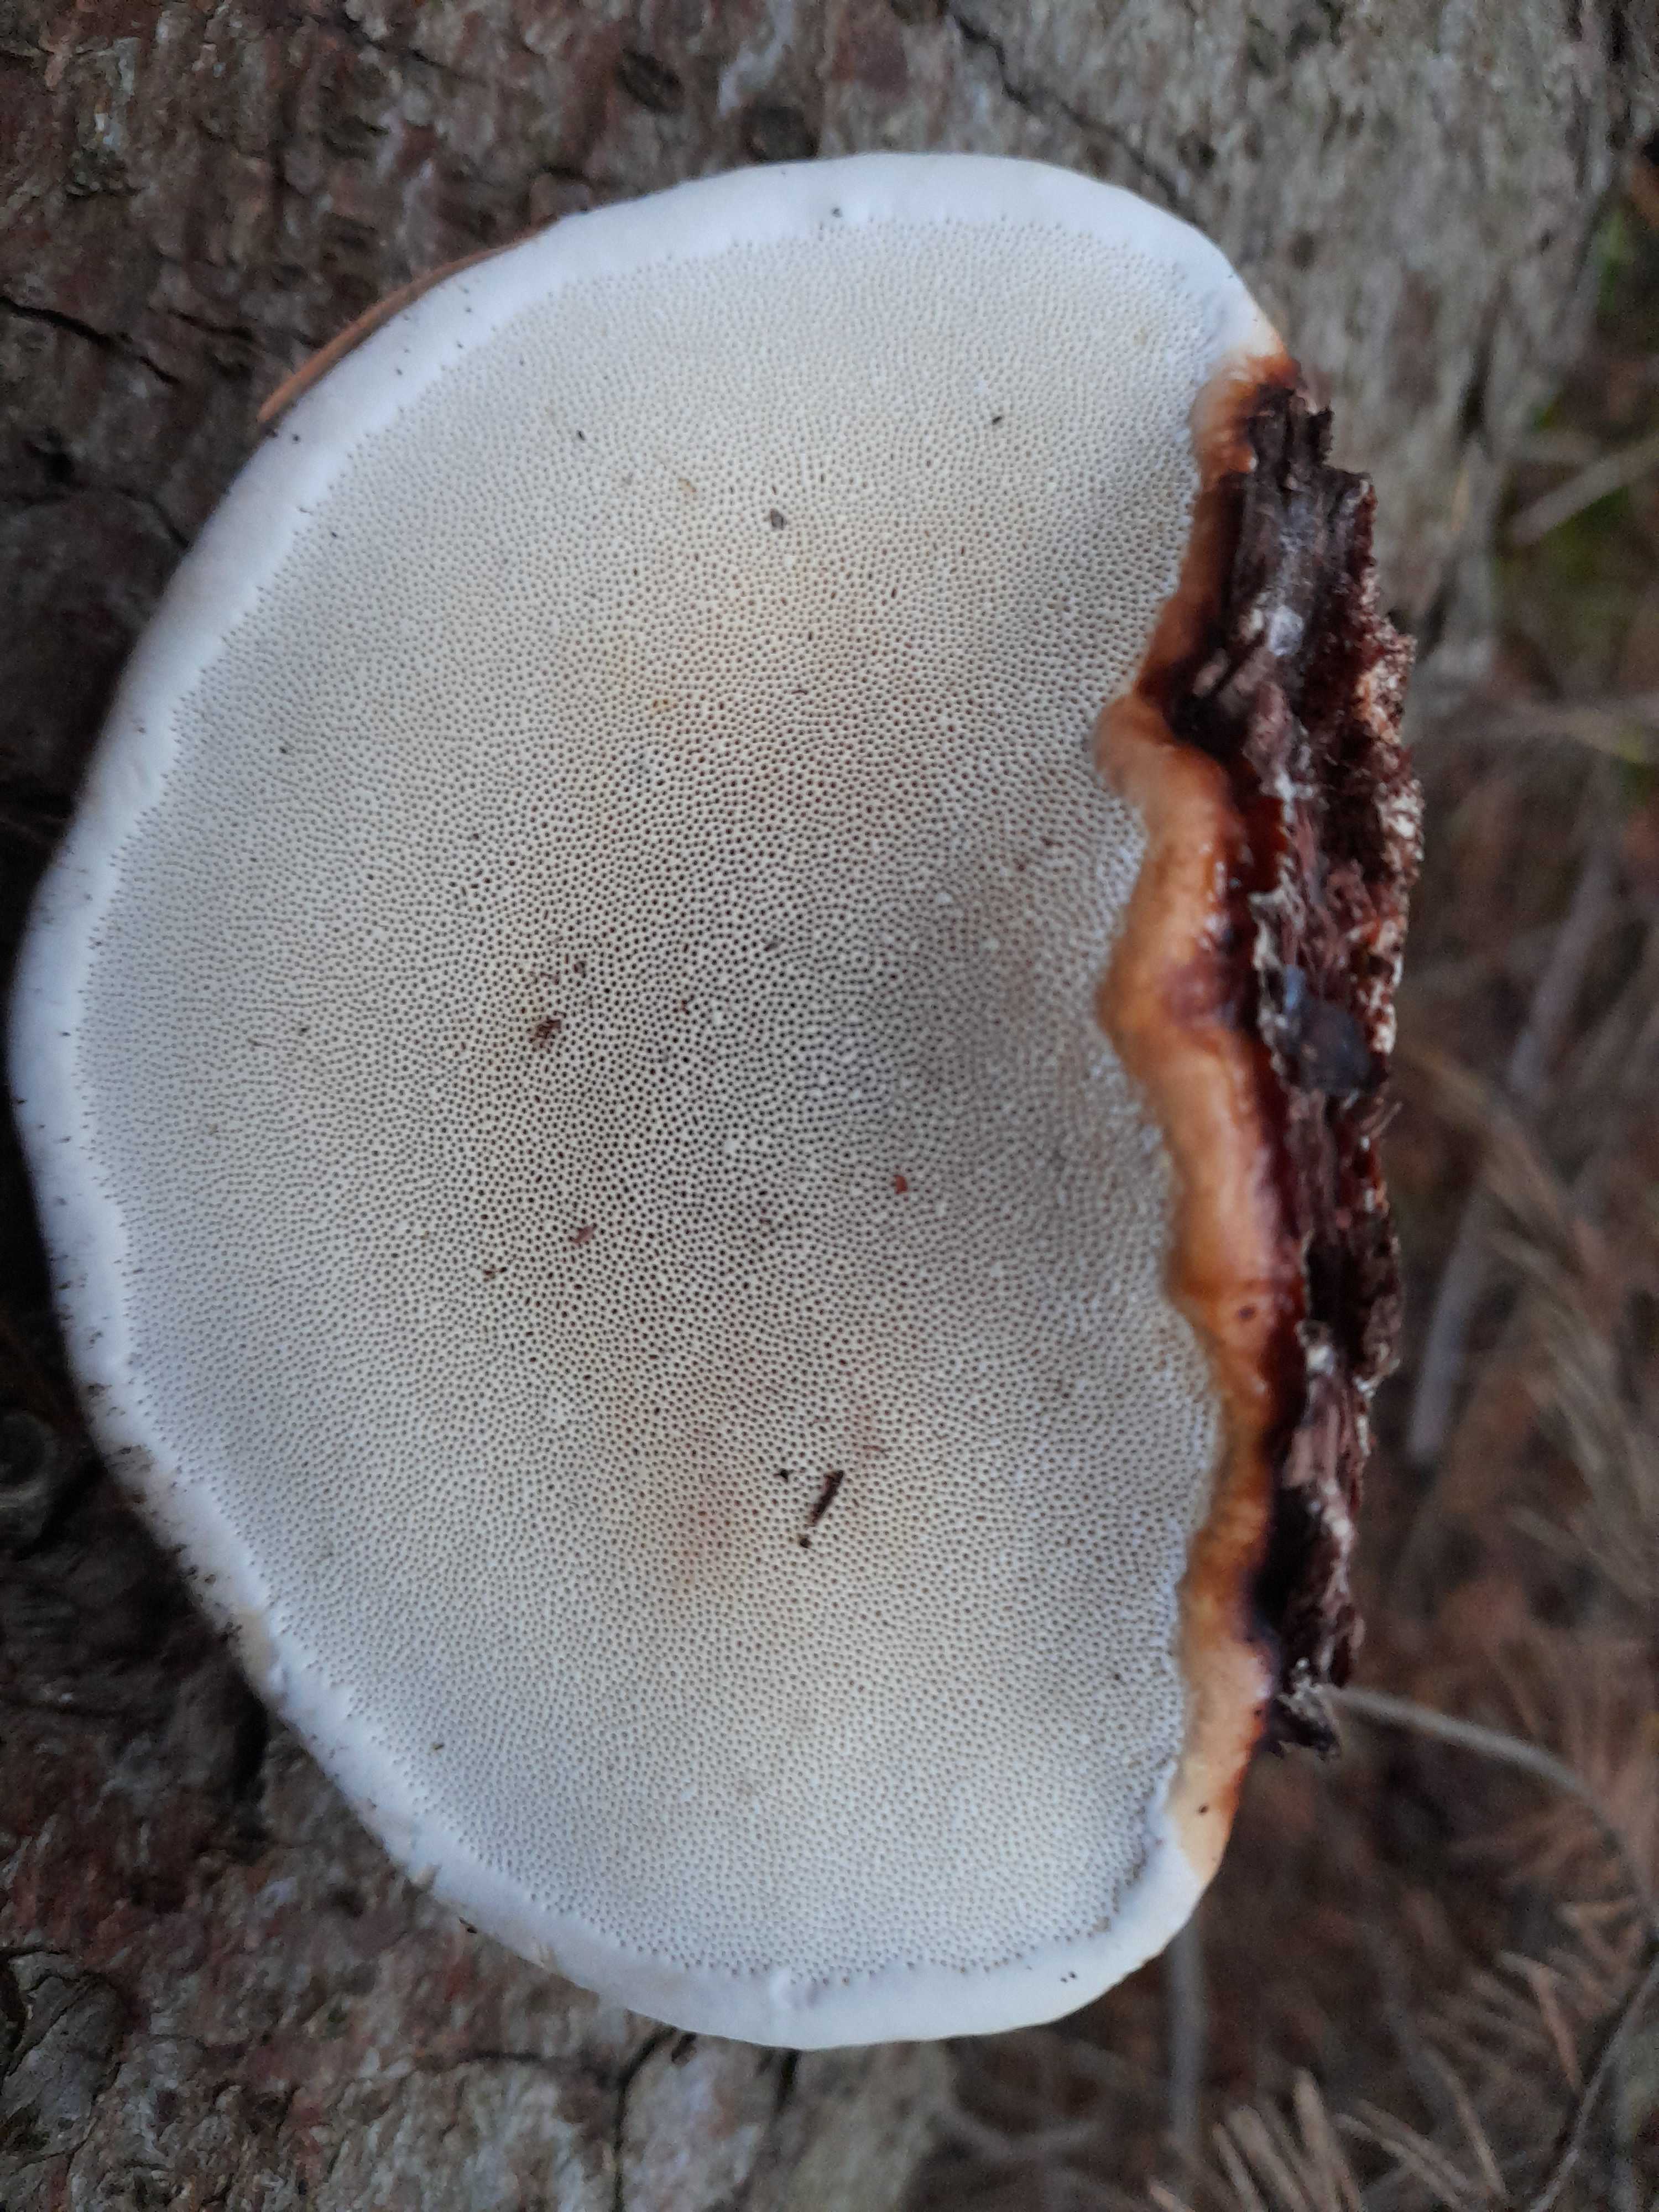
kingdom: Fungi
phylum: Basidiomycota
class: Agaricomycetes
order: Polyporales
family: Fomitopsidaceae
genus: Fomitopsis
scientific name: Fomitopsis pinicola
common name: randbæltet hovporesvamp
